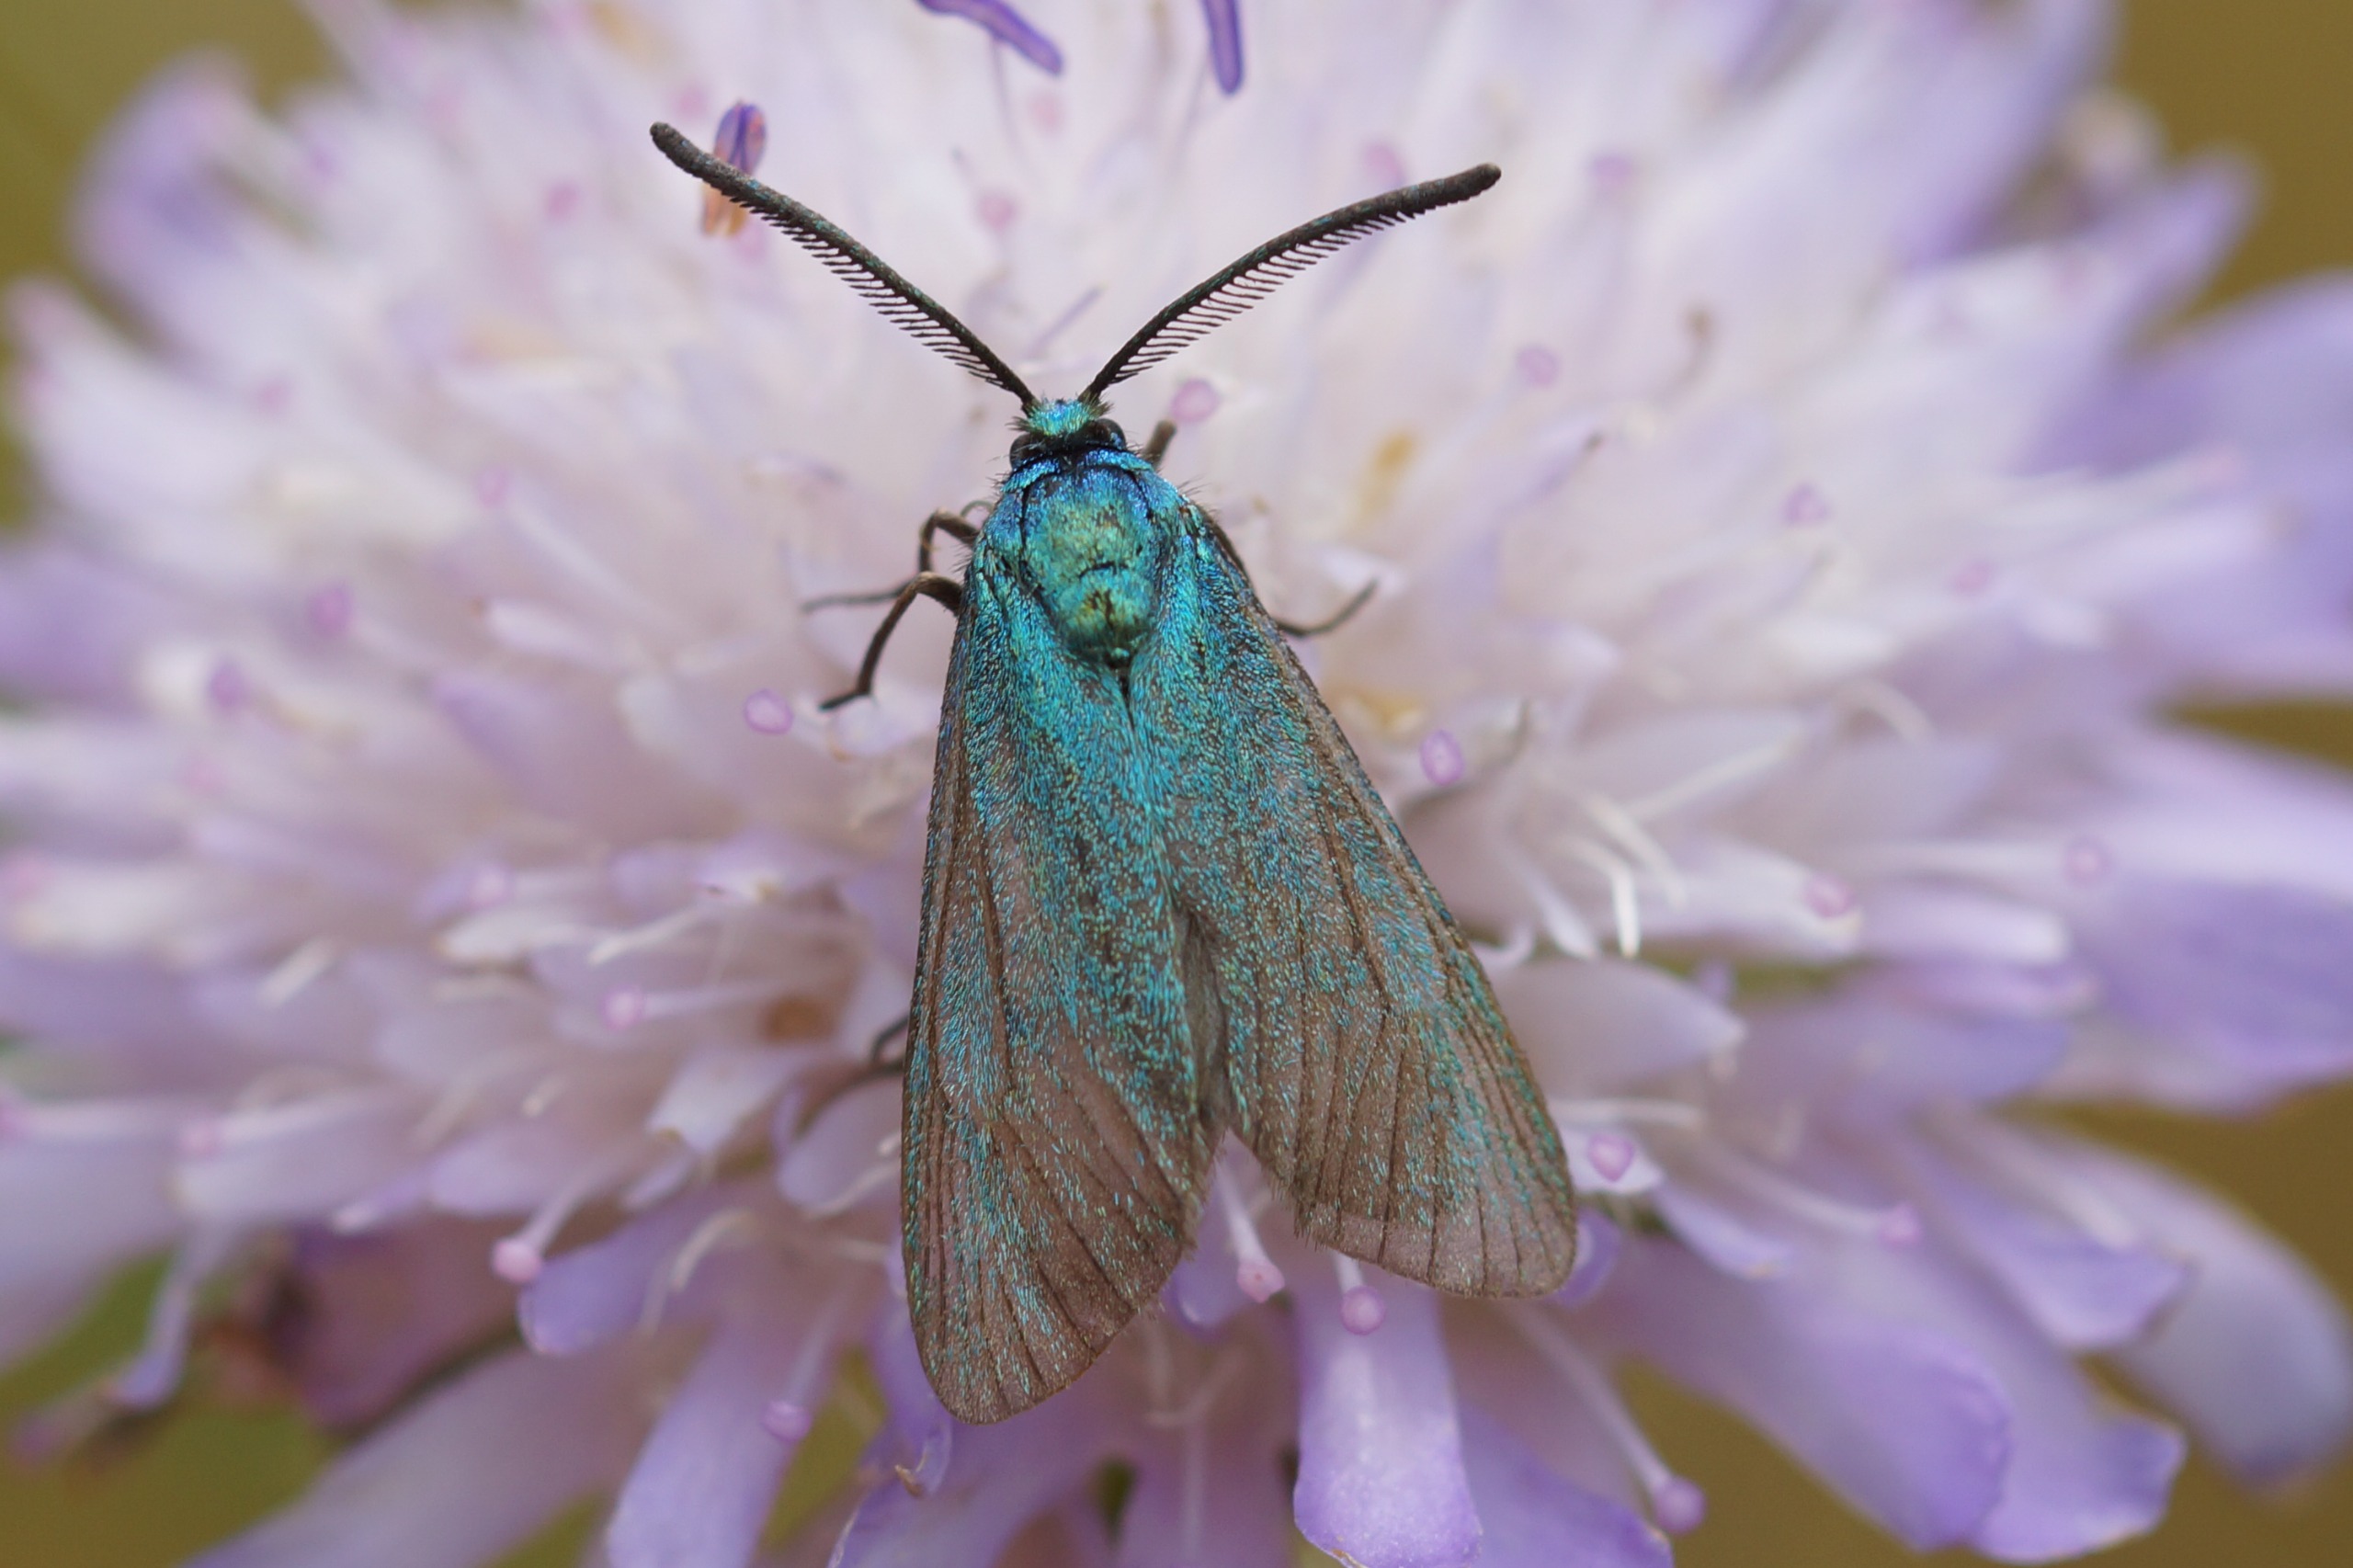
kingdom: Animalia
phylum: Arthropoda
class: Insecta
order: Lepidoptera
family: Zygaenidae
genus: Adscita
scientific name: Adscita statices
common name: Metalvinge
